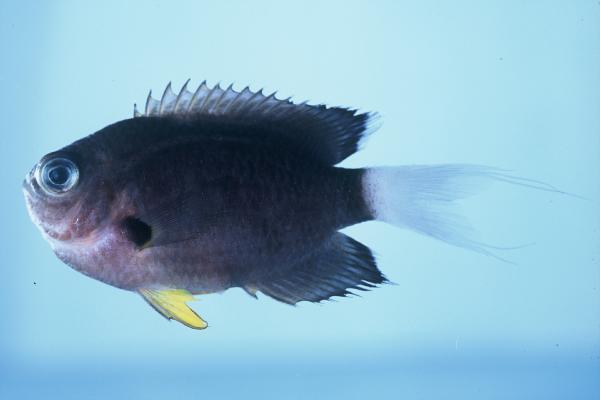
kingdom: Animalia
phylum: Chordata
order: Perciformes
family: Pomacentridae
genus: Chromis
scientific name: Chromis leucura
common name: Whitetail chromis
